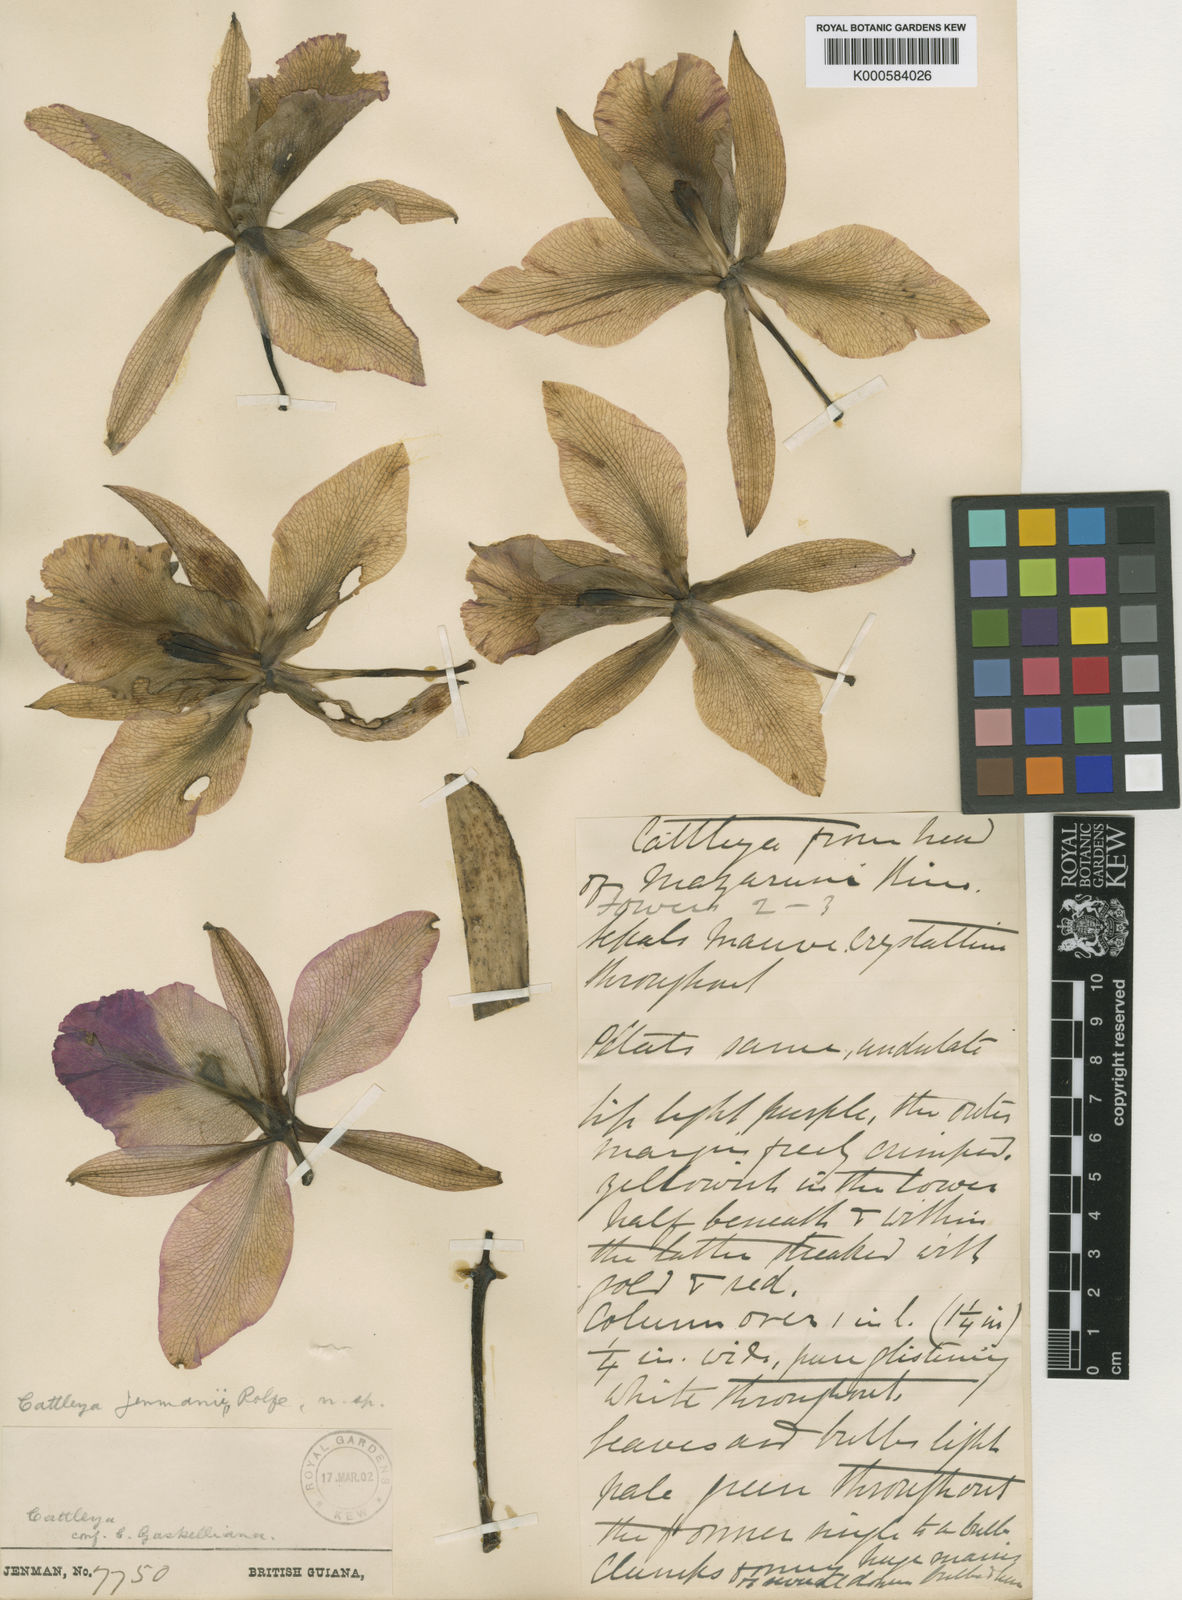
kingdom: Plantae
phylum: Tracheophyta
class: Liliopsida
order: Asparagales
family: Orchidaceae
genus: Cattleya
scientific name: Cattleya jenmanii
